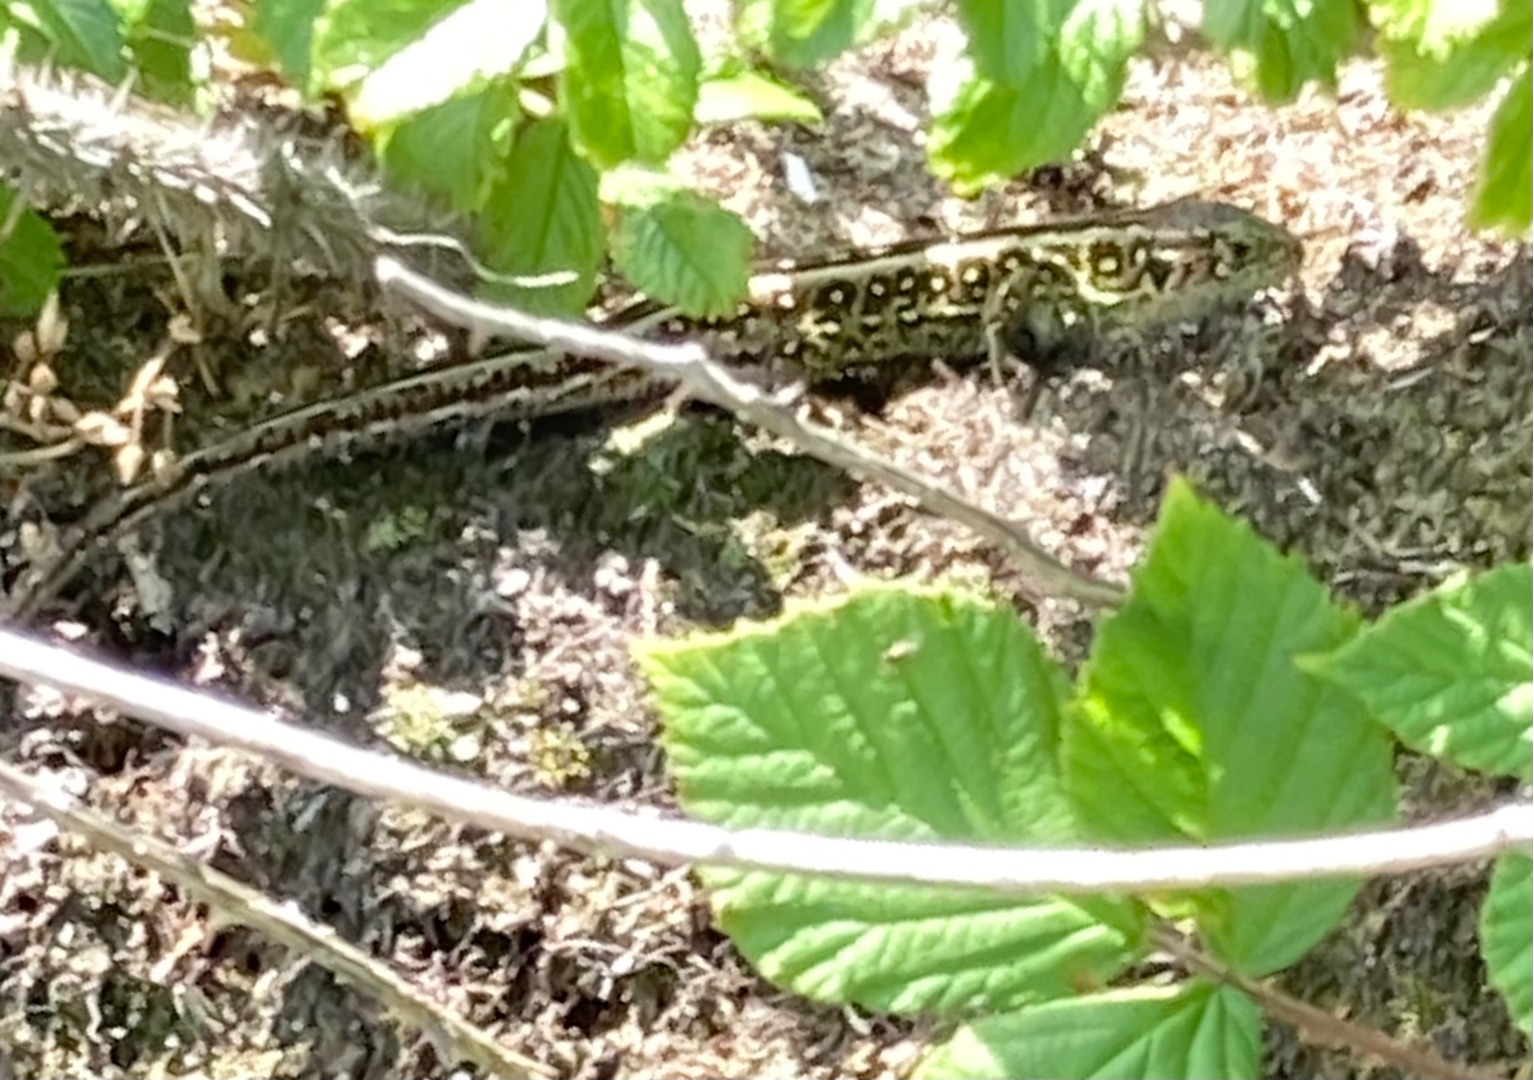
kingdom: Animalia
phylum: Chordata
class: Squamata
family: Lacertidae
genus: Lacerta
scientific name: Lacerta agilis
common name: Markfirben
